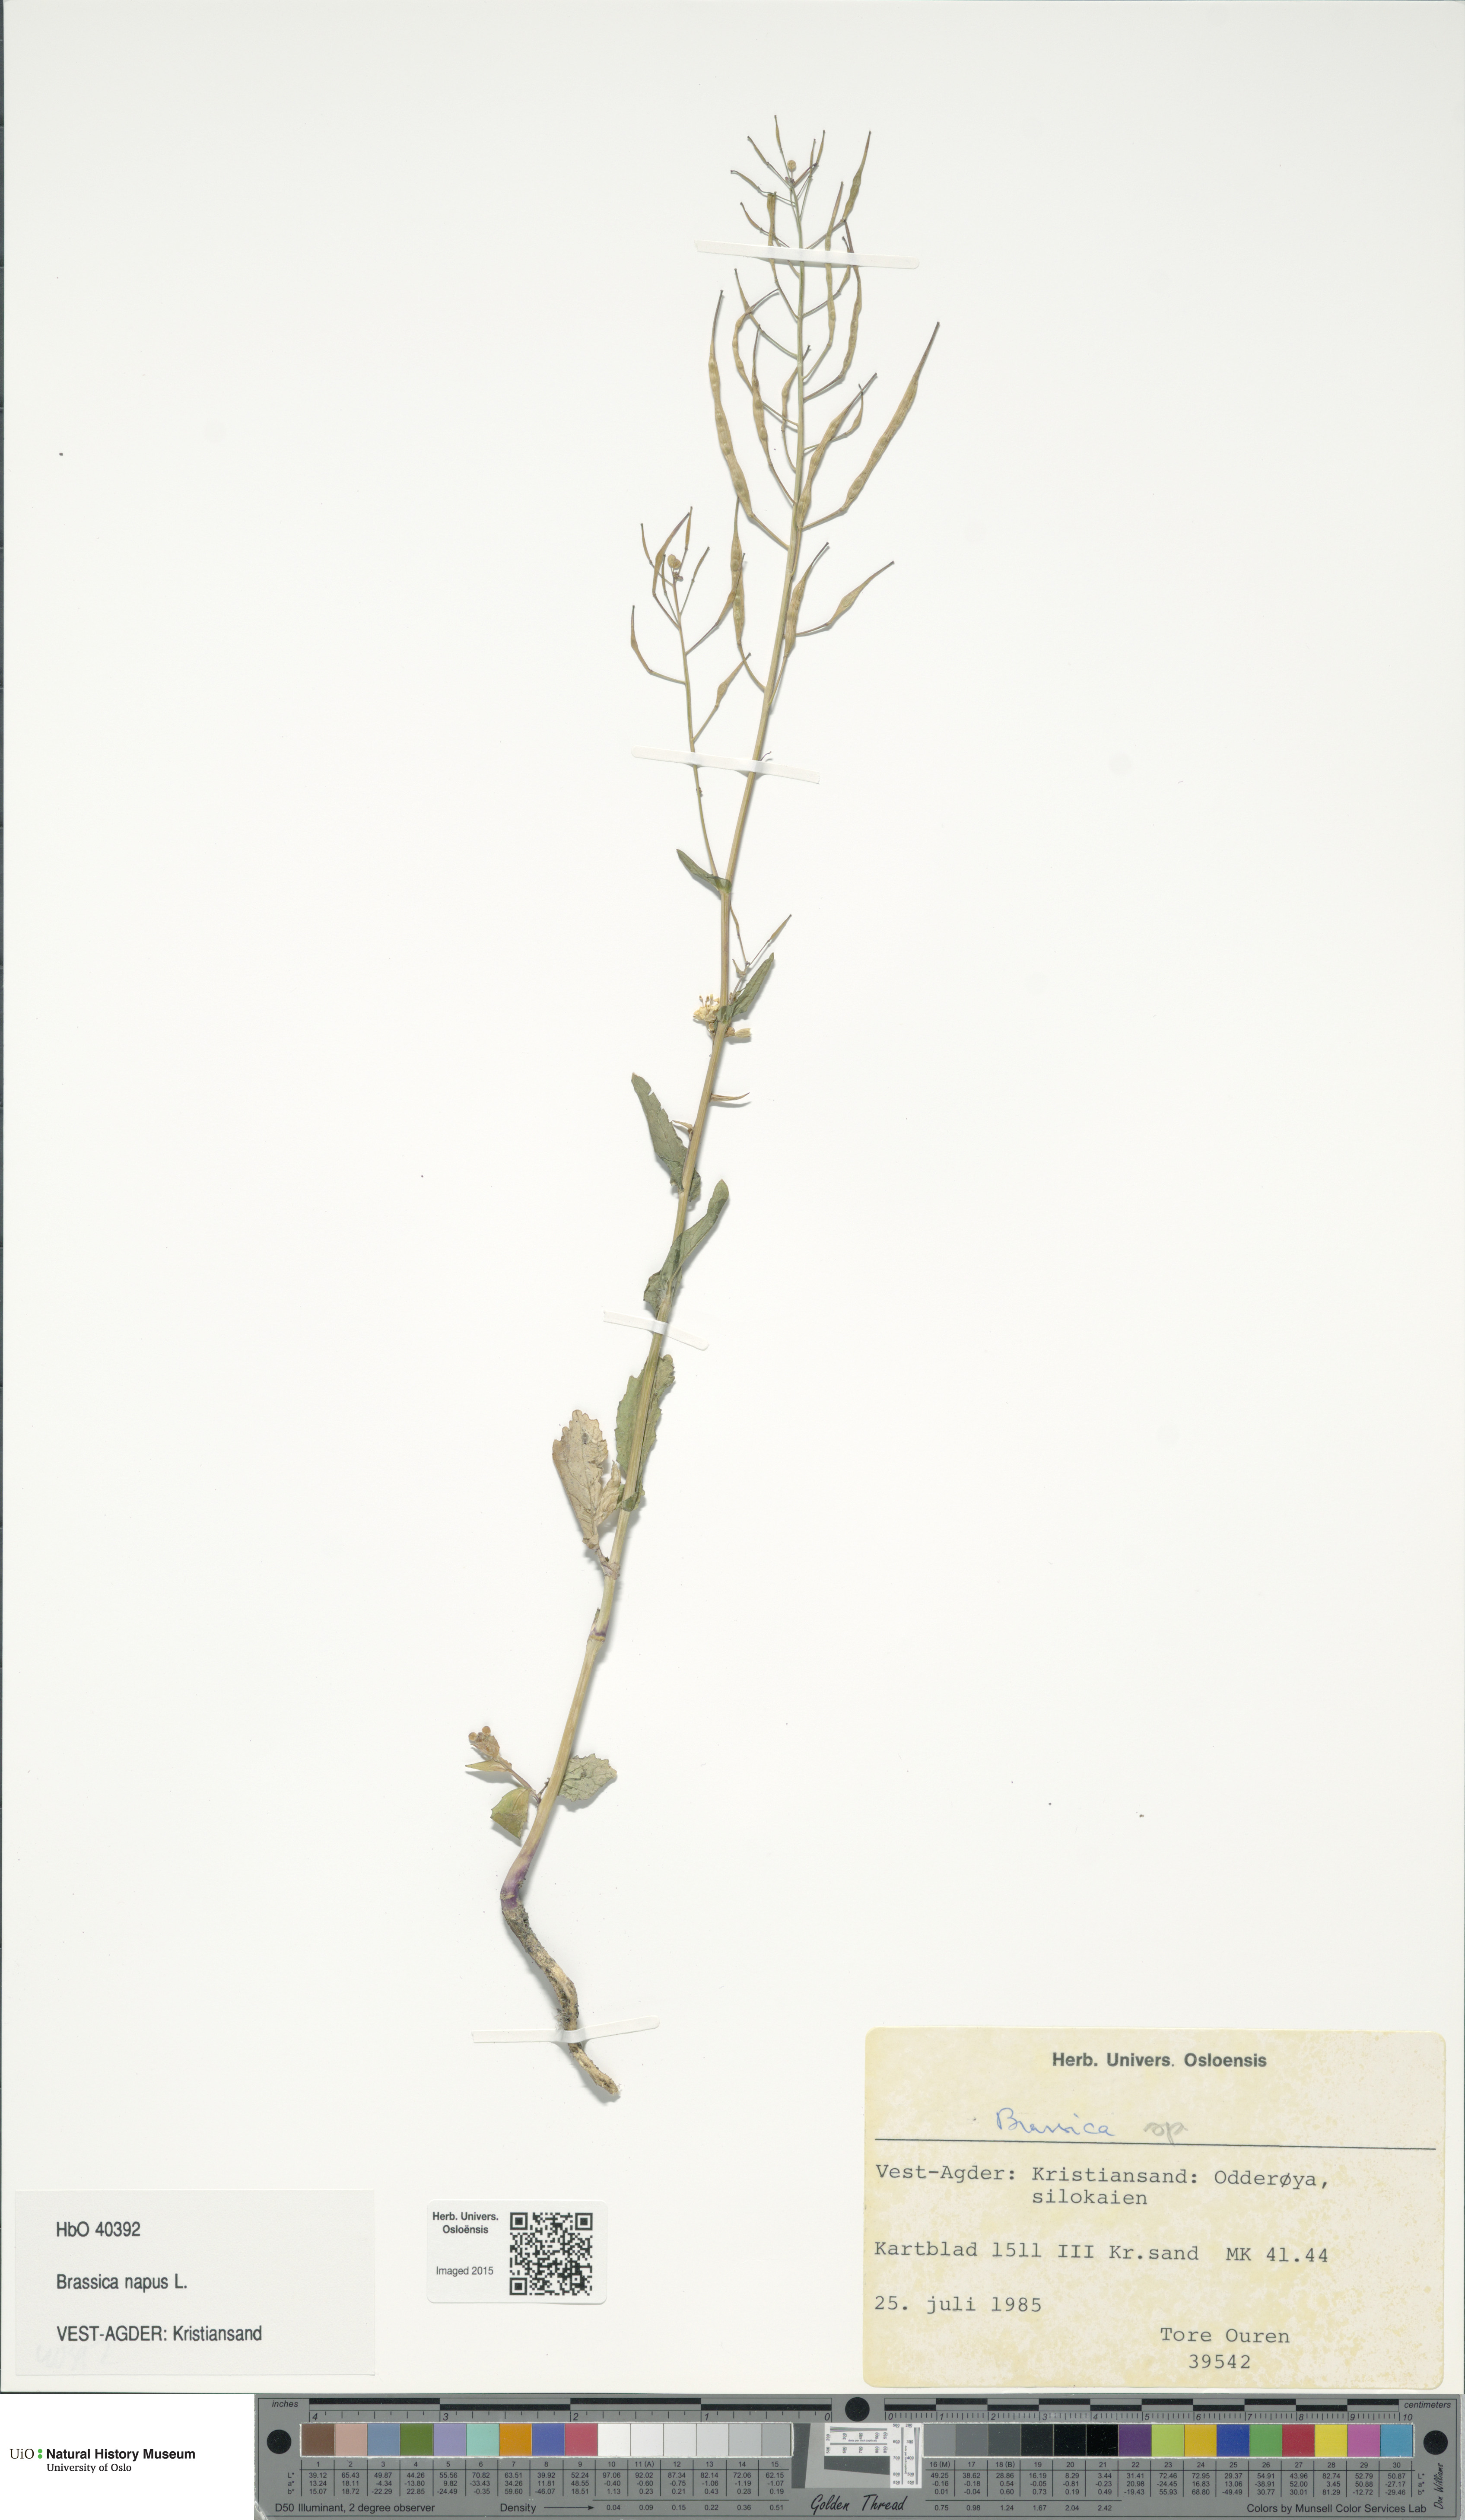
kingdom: Plantae
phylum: Tracheophyta
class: Magnoliopsida
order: Brassicales
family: Brassicaceae
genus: Brassica
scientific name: Brassica napus
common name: Rape
